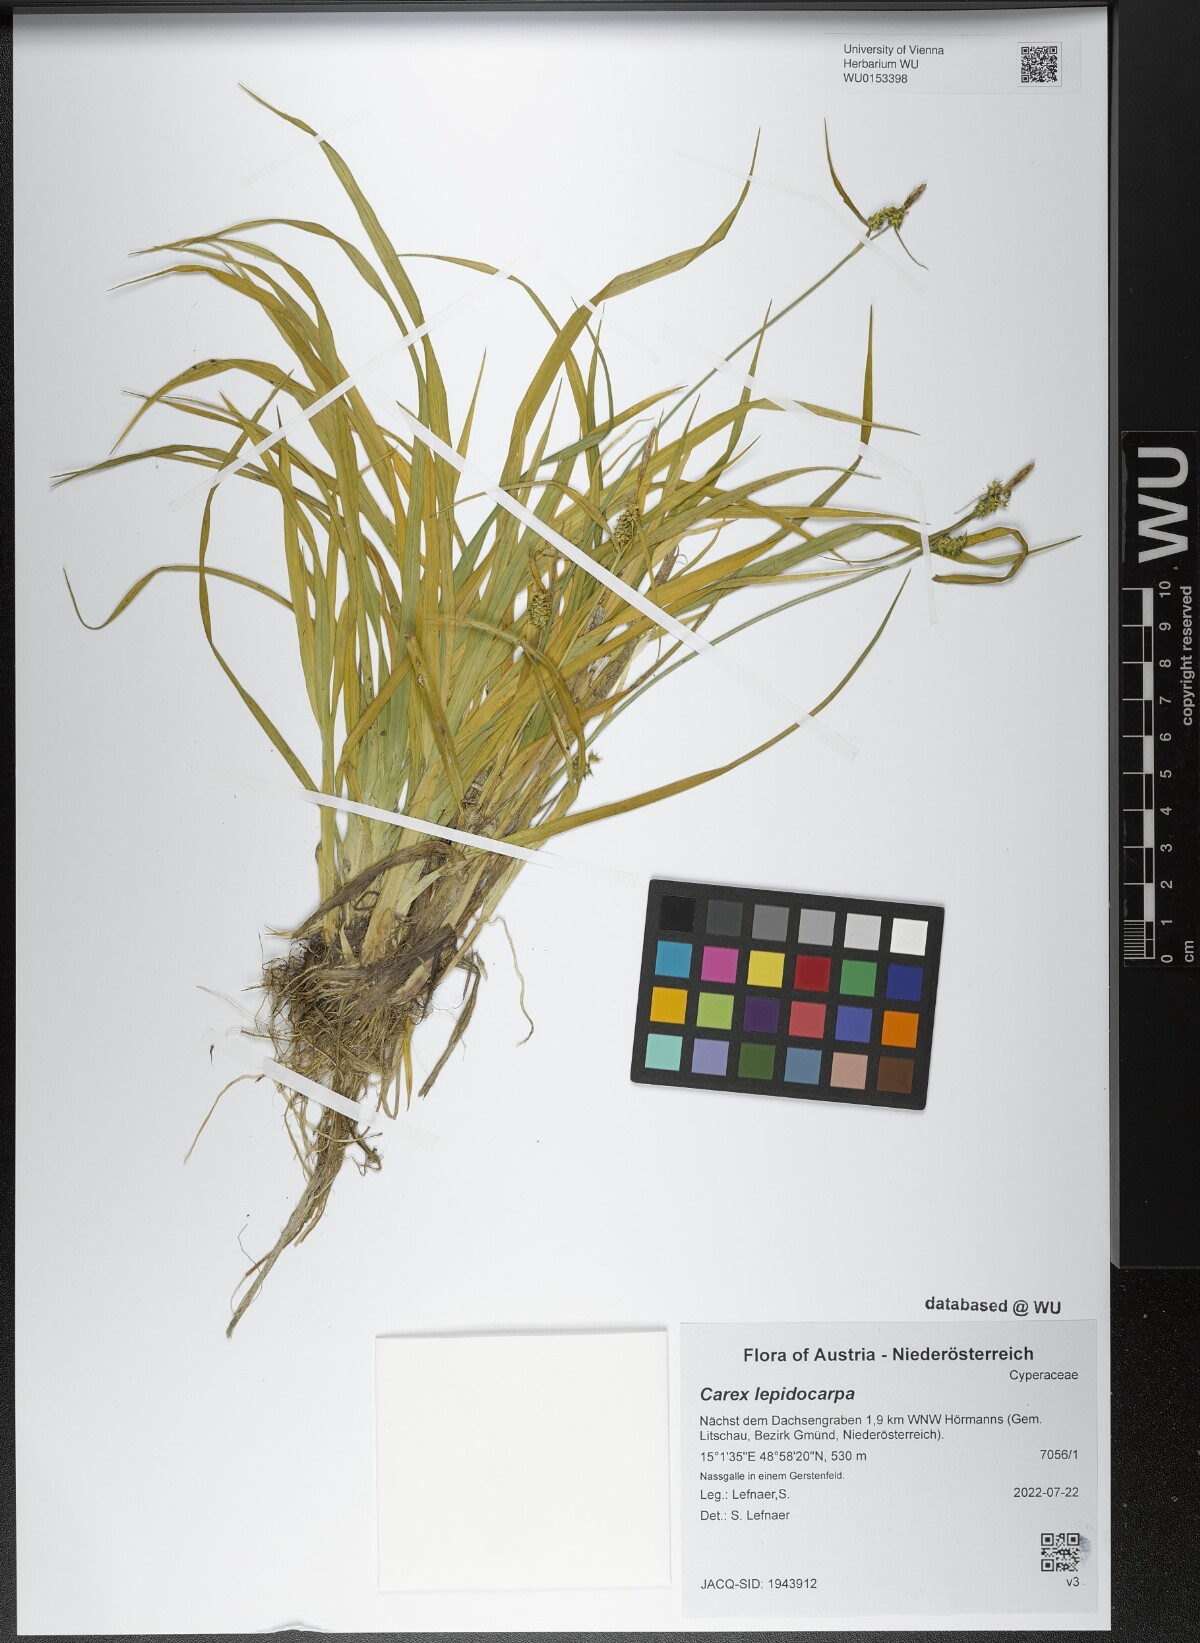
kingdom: Plantae
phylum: Tracheophyta
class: Liliopsida
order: Poales
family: Cyperaceae
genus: Carex
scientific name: Carex lepidocarpa
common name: Long-stalked yellow-sedge
